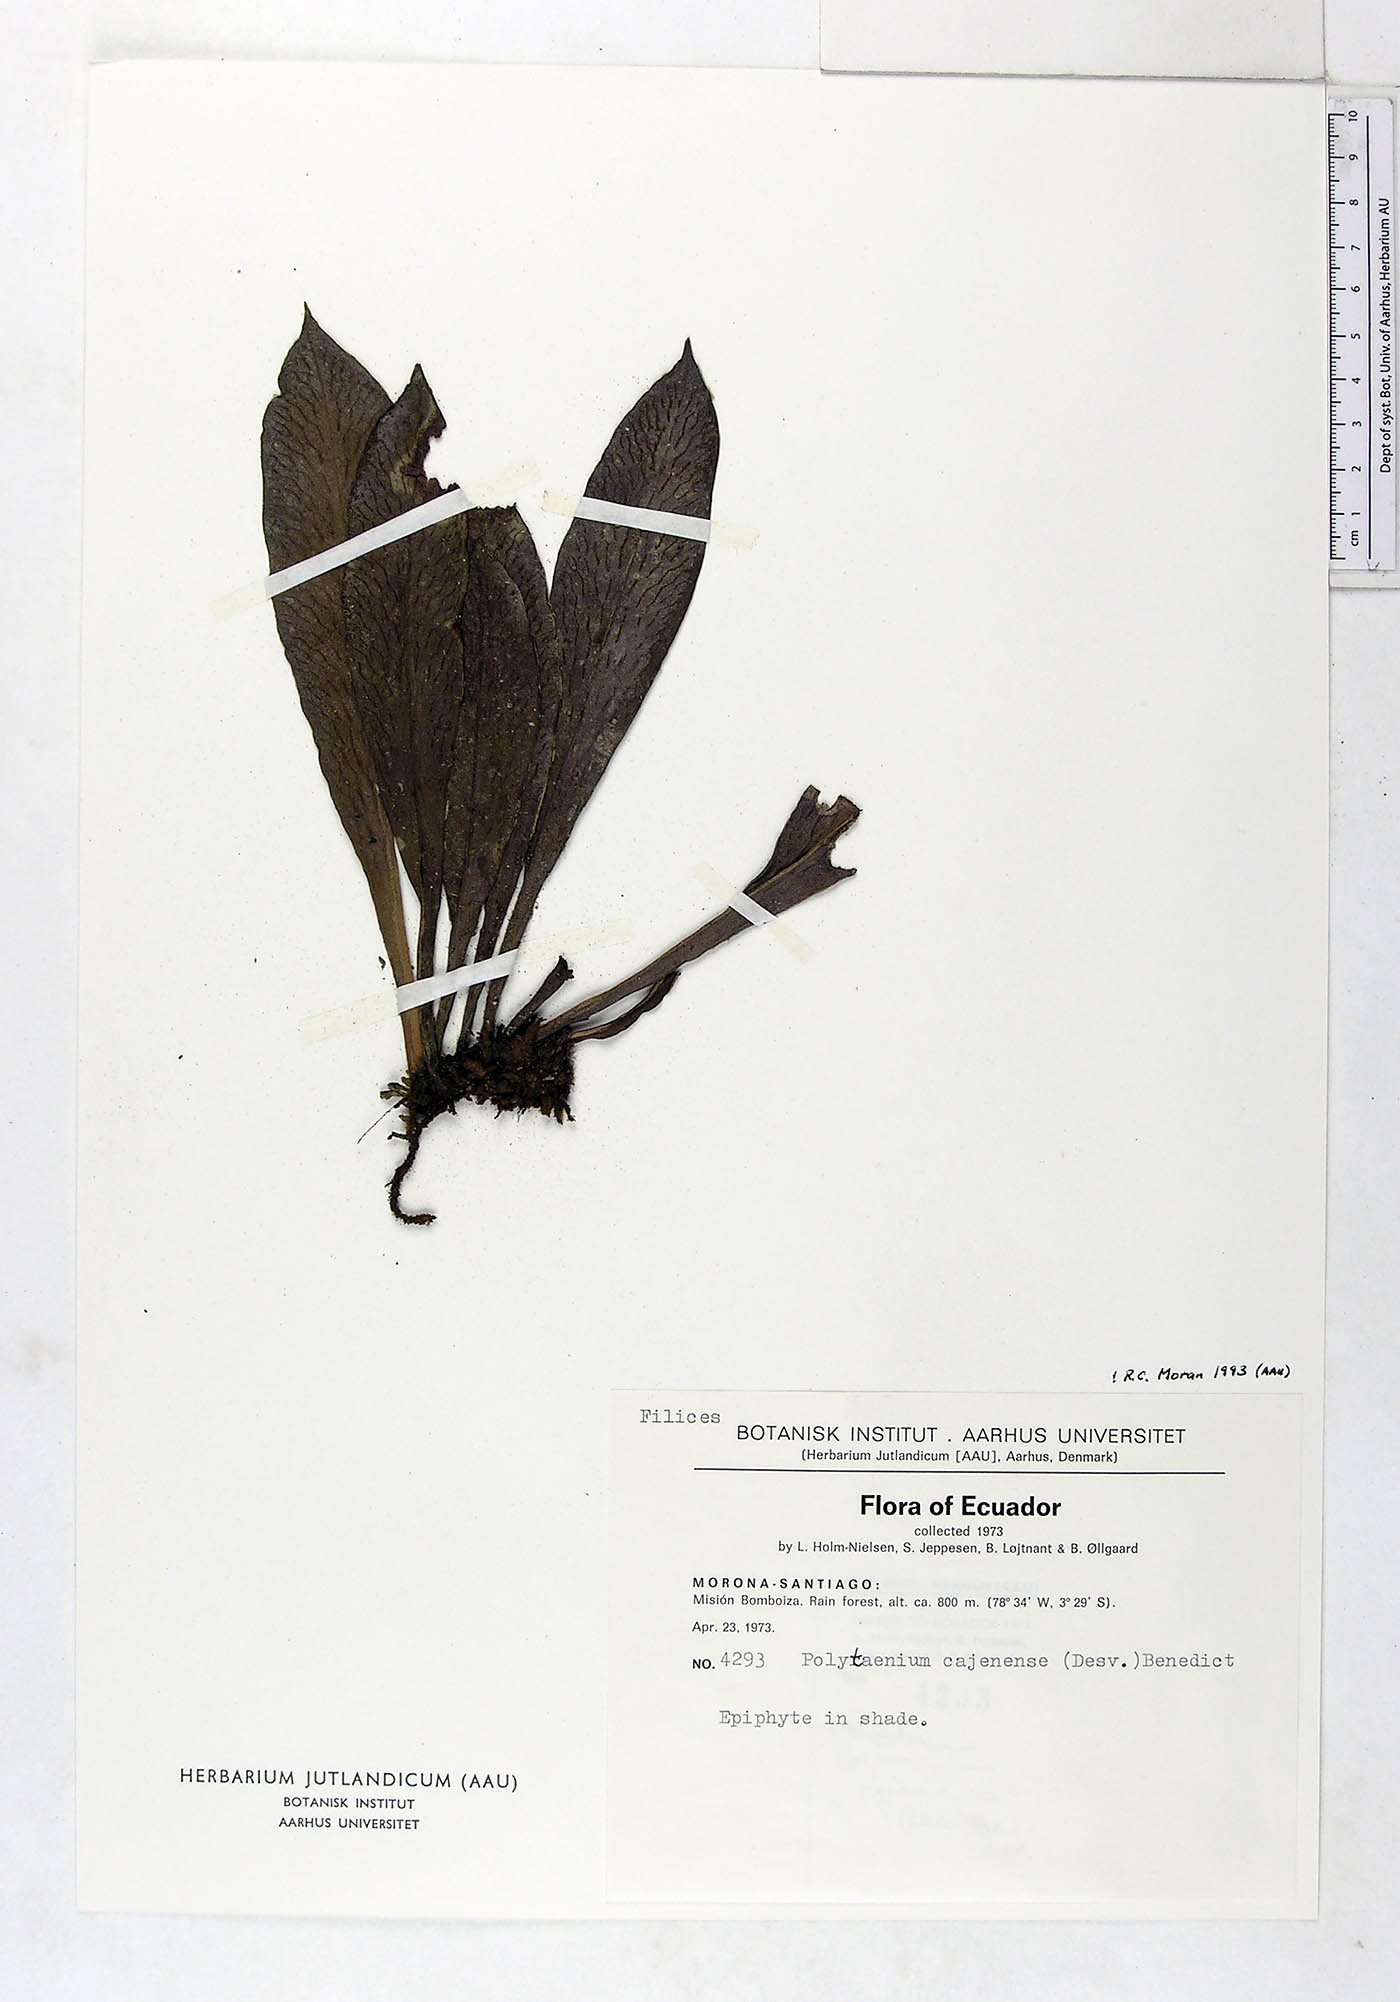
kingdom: Plantae
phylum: Tracheophyta
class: Polypodiopsida
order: Polypodiales
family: Pteridaceae
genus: Polytaenium
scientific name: Polytaenium cajenense
